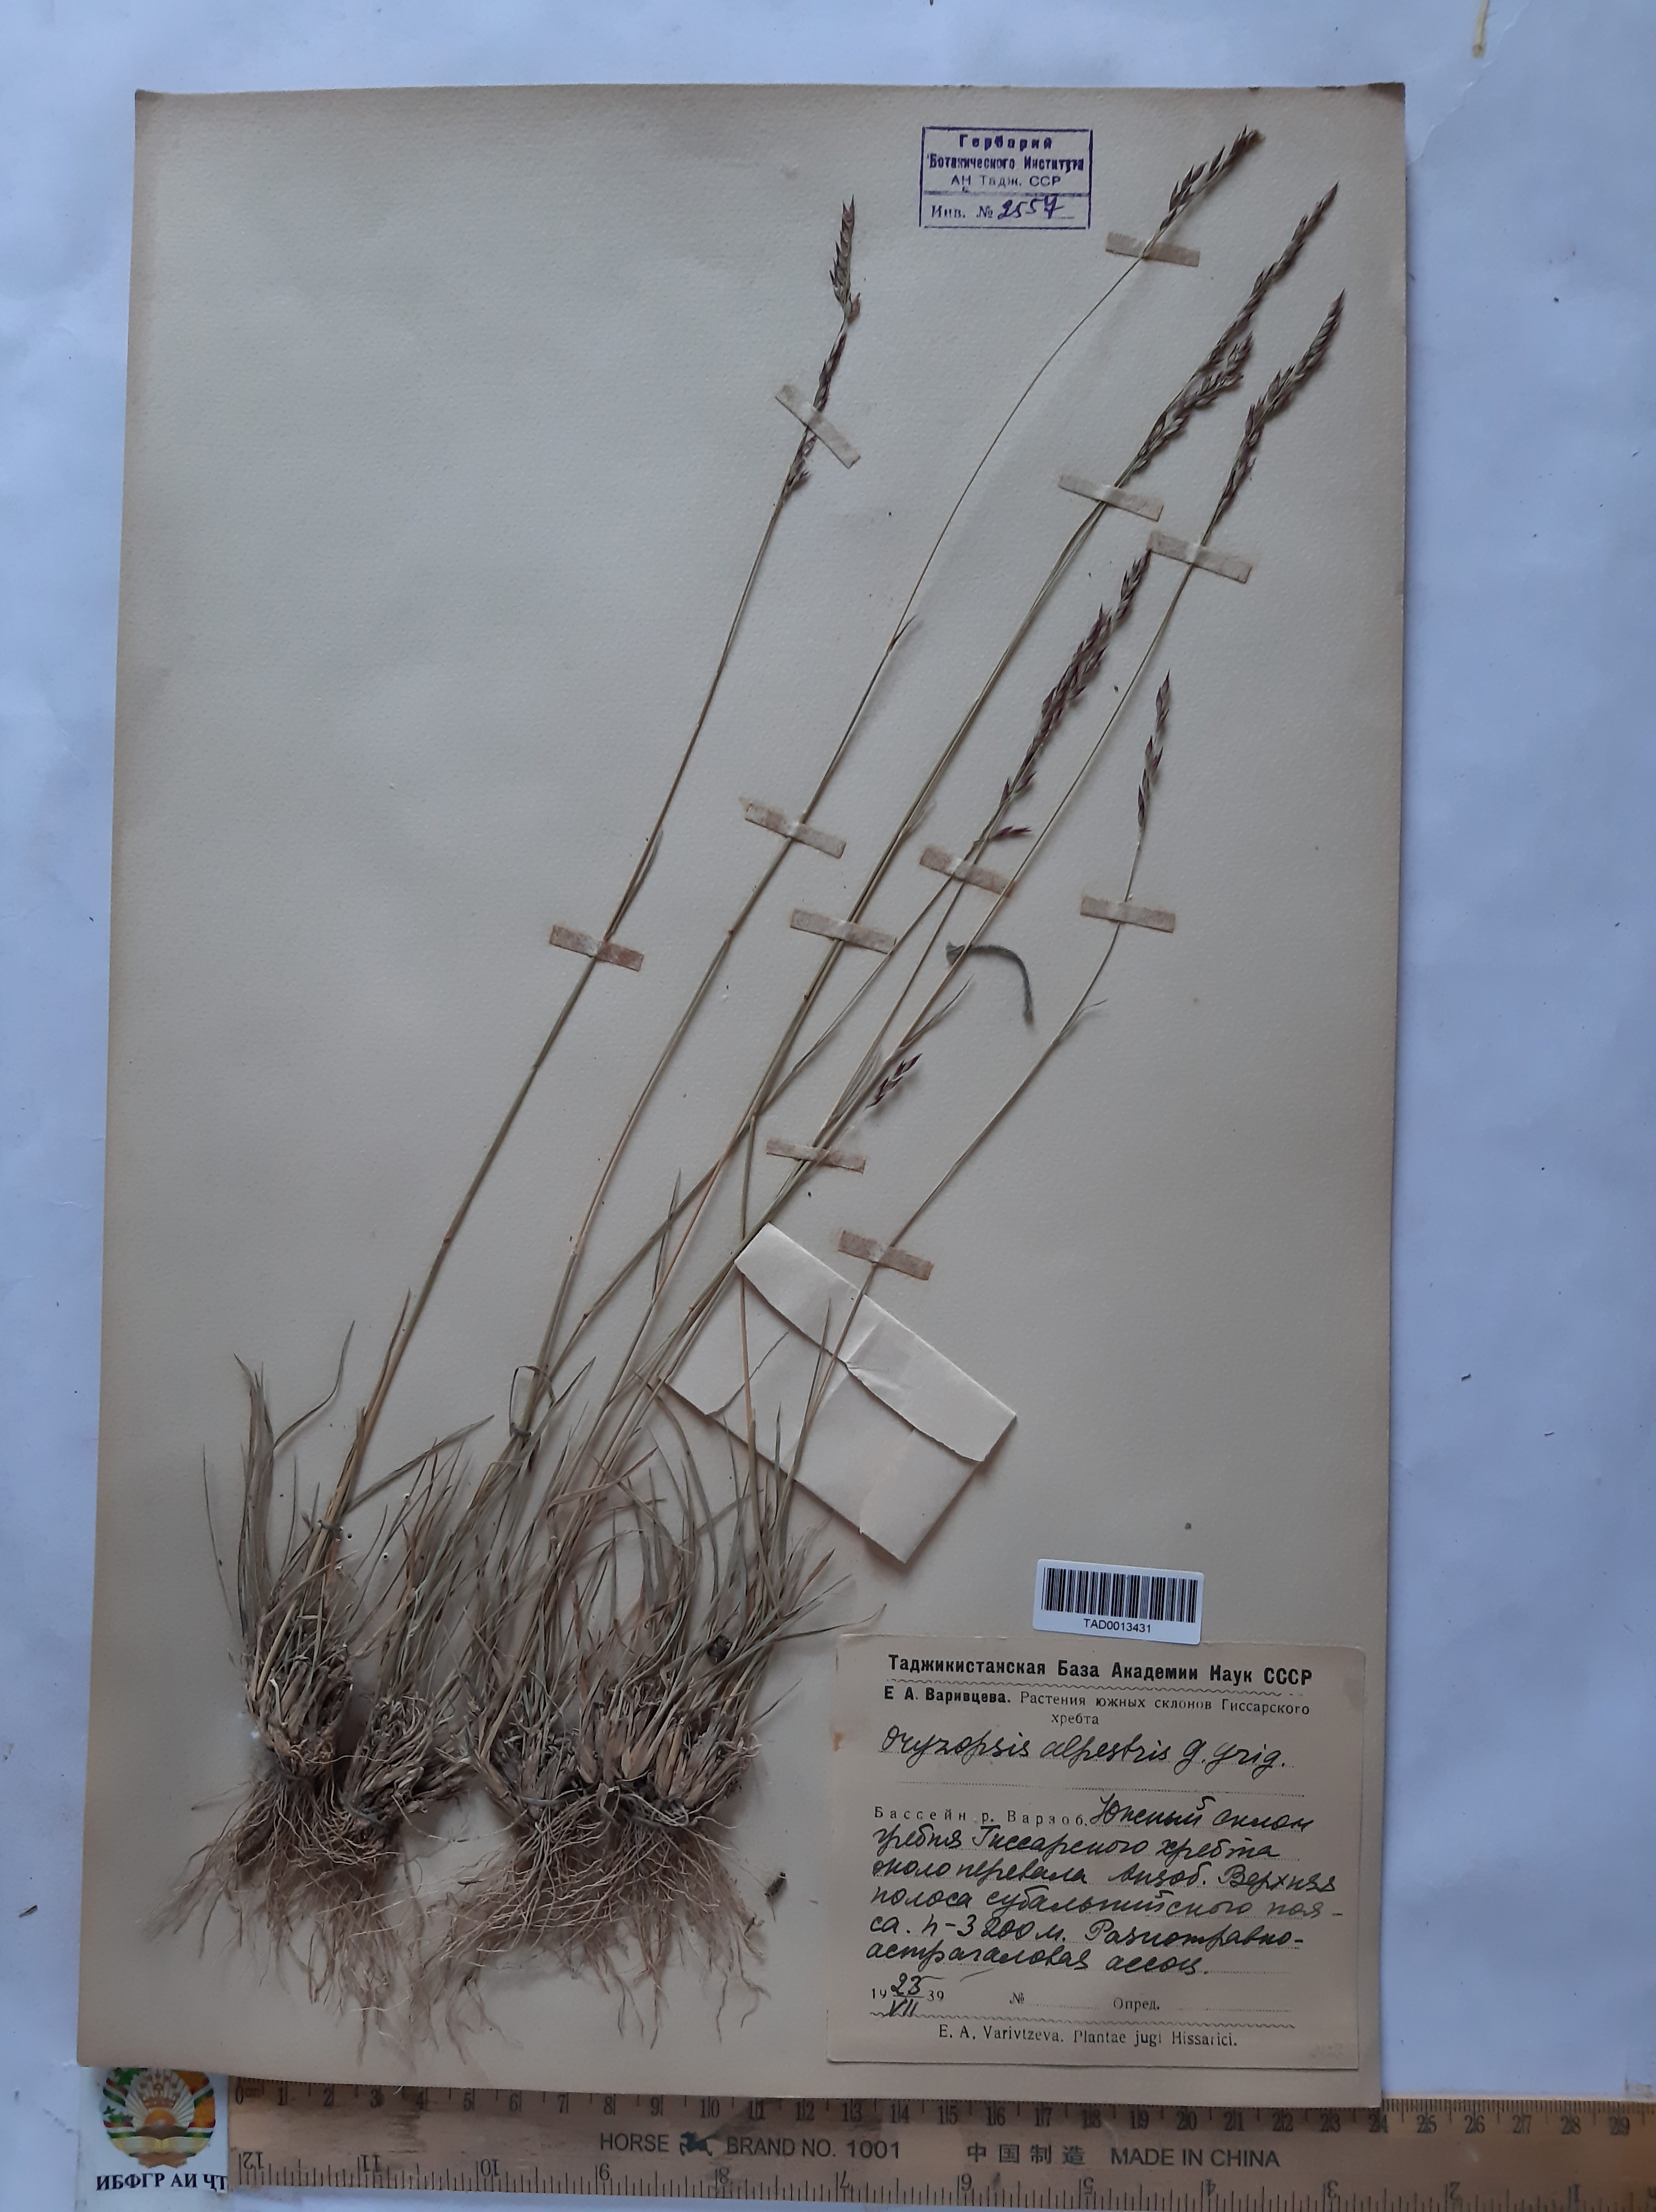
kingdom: Plantae
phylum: Tracheophyta
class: Liliopsida
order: Poales
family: Poaceae
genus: Piptatherum
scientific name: Piptatherum alpestre
